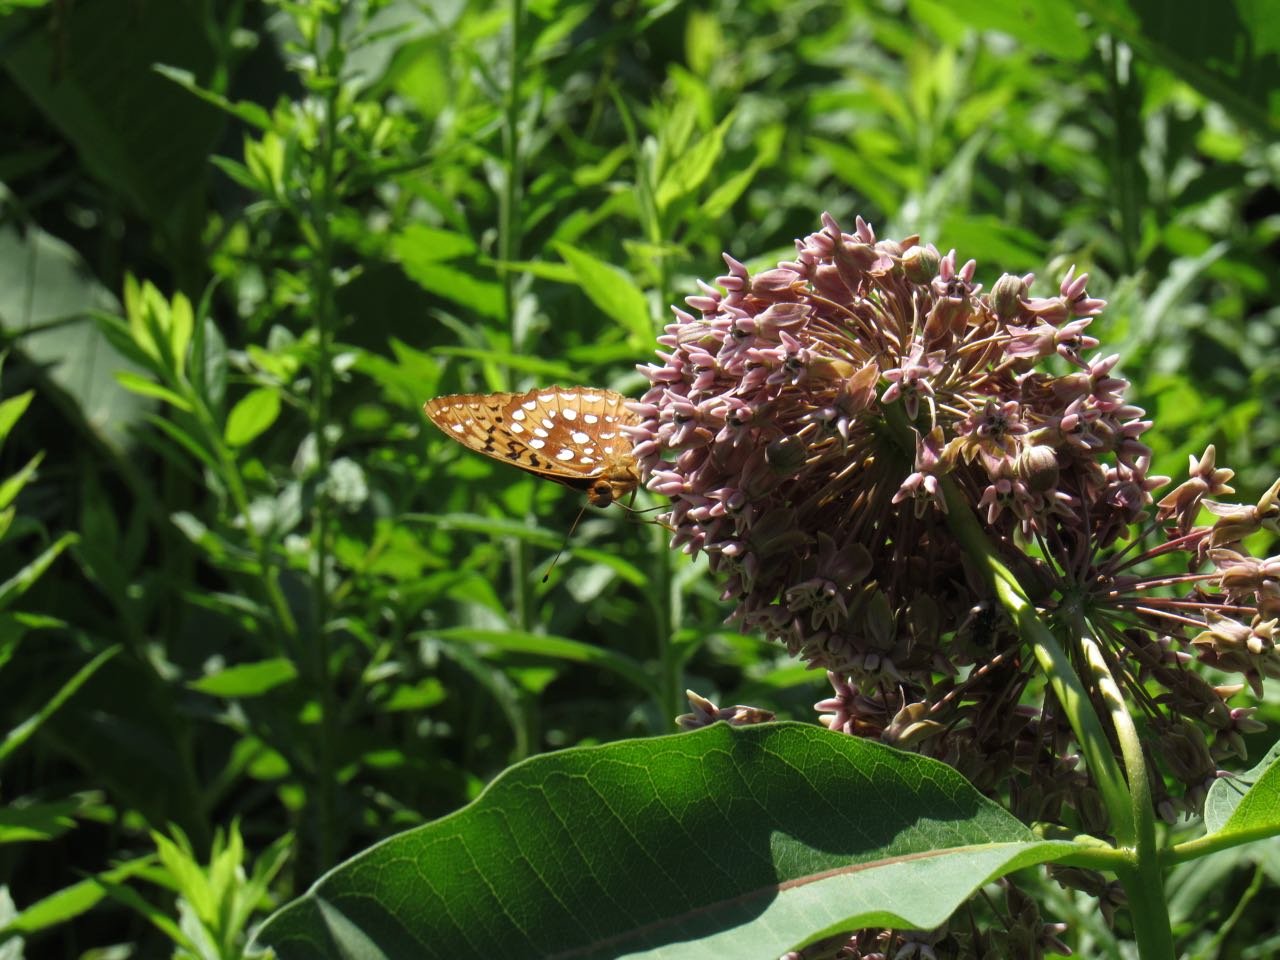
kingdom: Animalia
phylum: Arthropoda
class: Insecta
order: Lepidoptera
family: Nymphalidae
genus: Speyeria
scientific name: Speyeria cybele
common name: Great Spangled Fritillary
